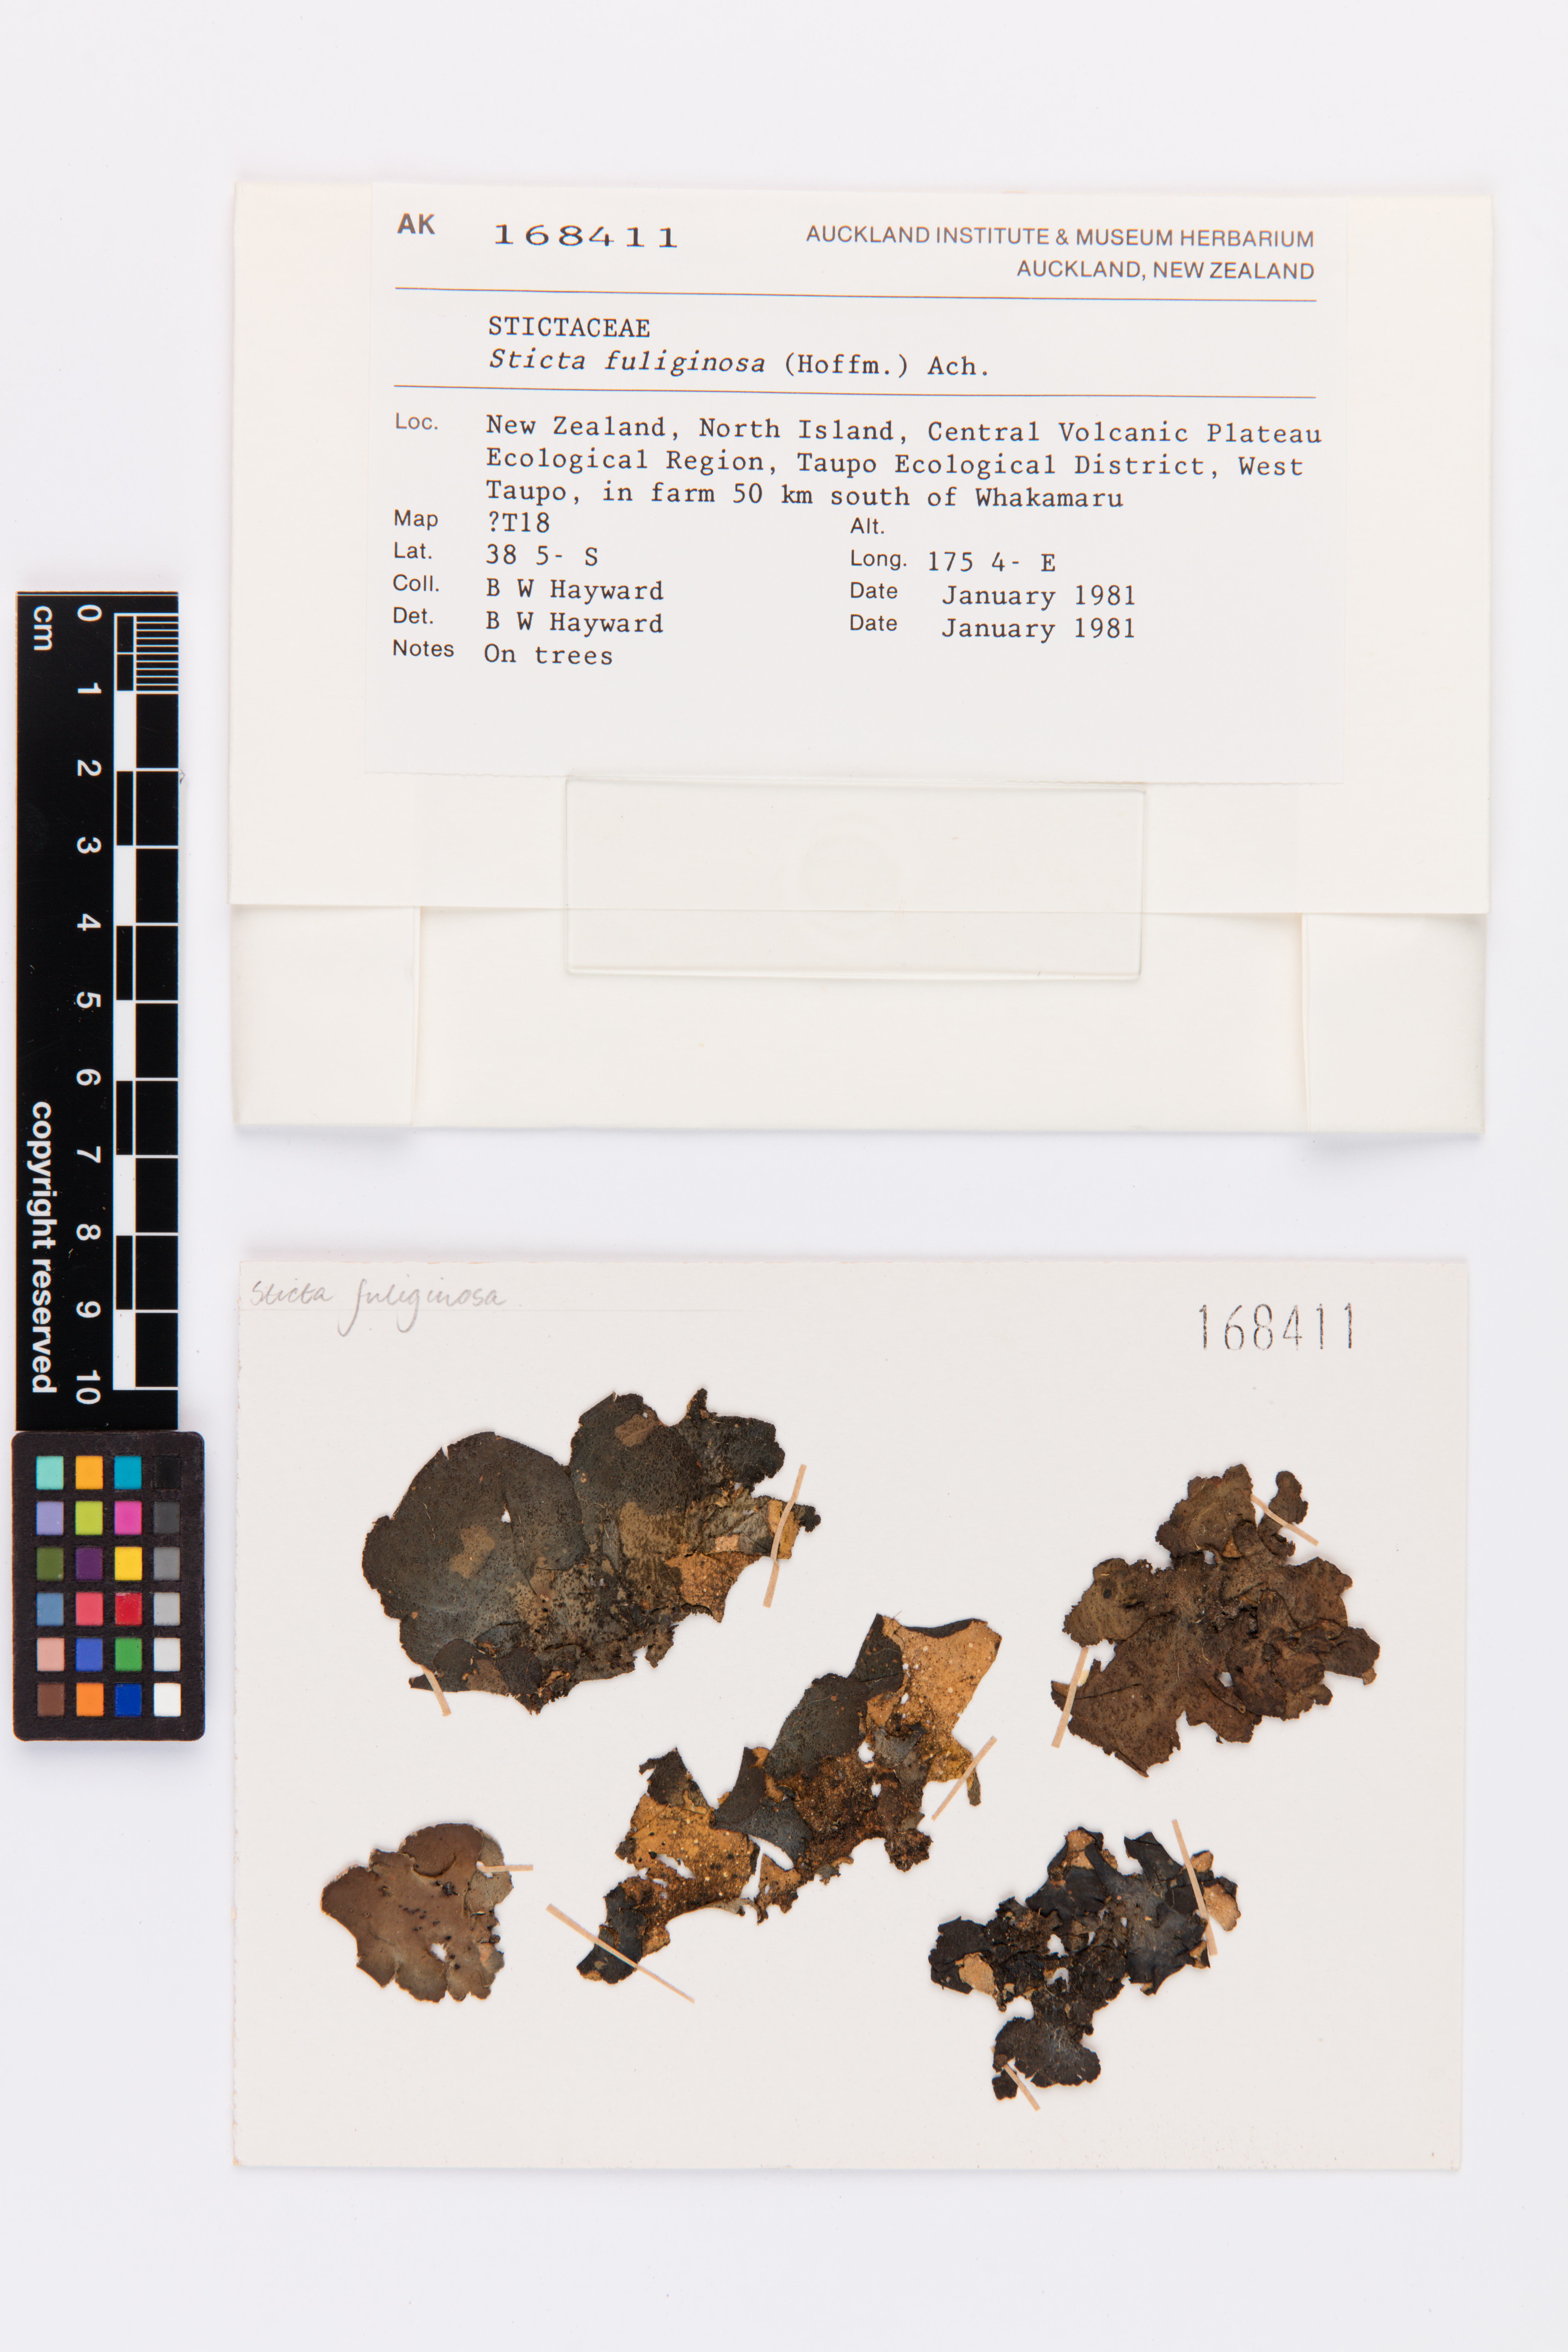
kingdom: Fungi
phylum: Ascomycota
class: Lecanoromycetes
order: Peltigerales
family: Lobariaceae
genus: Sticta
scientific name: Sticta fuliginosa
